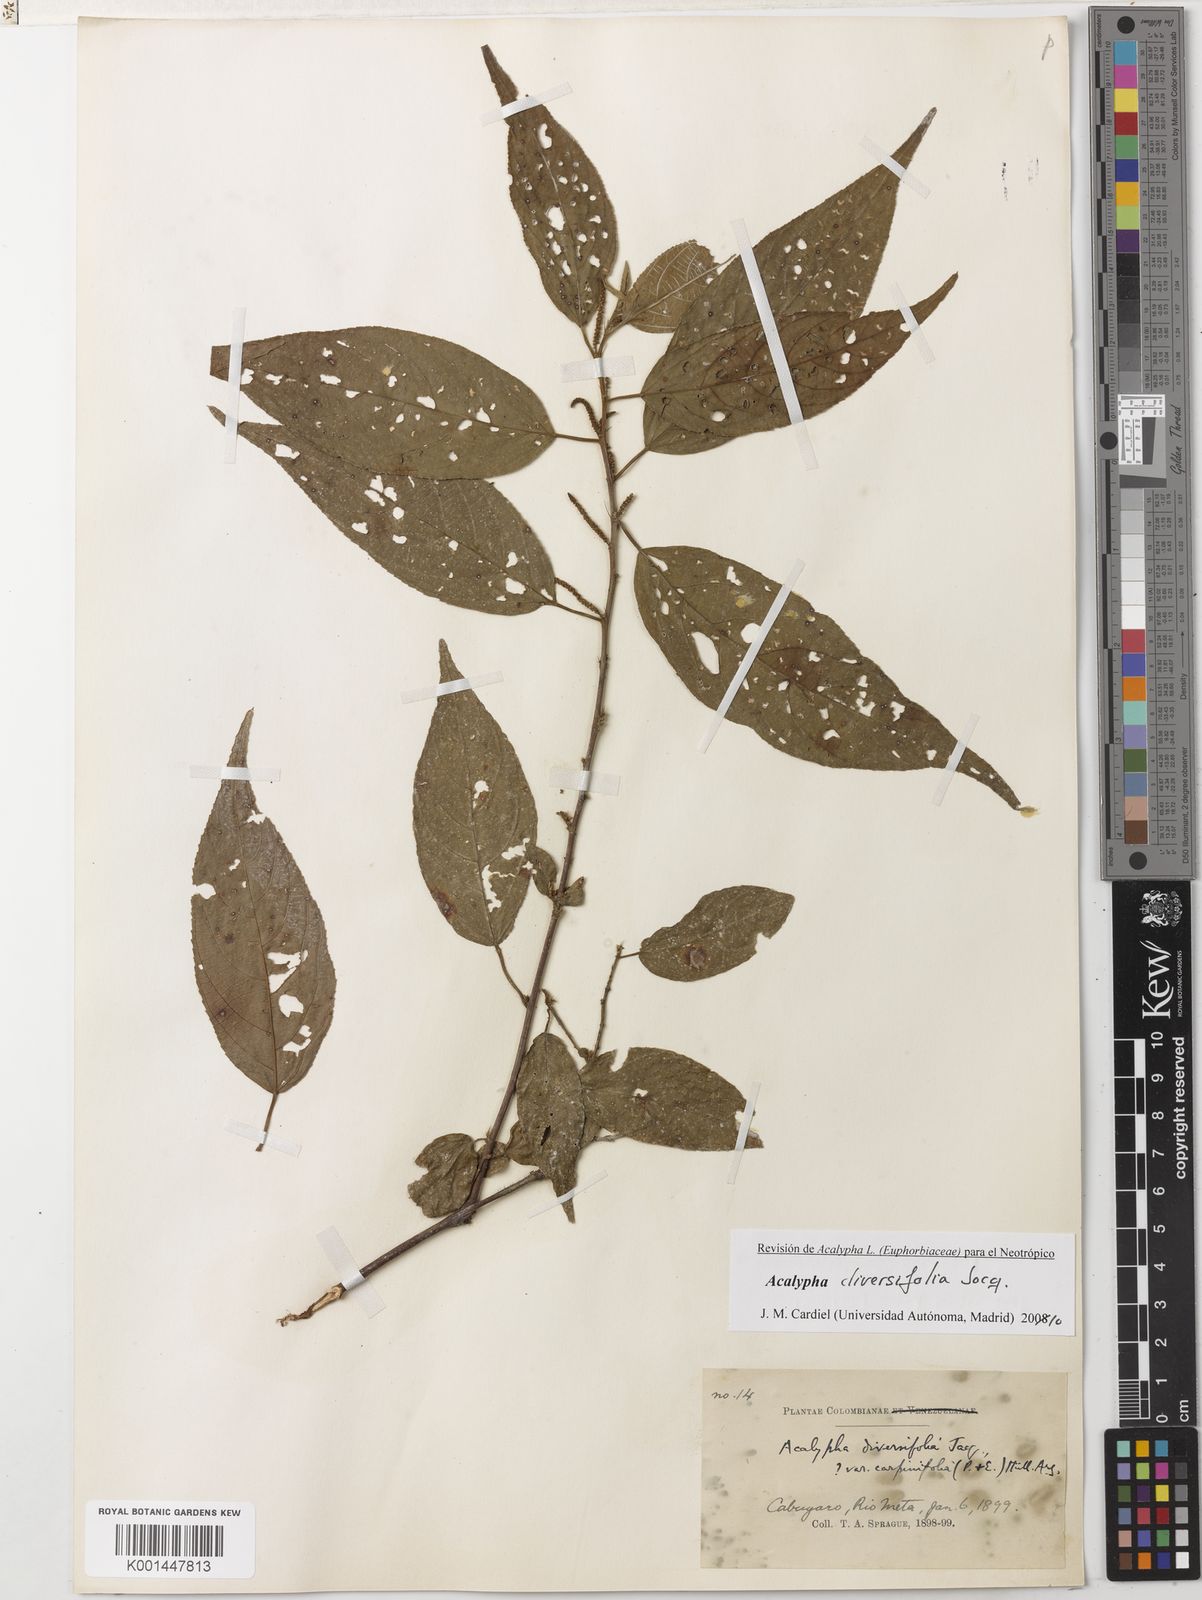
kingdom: Plantae
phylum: Tracheophyta
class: Magnoliopsida
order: Malpighiales
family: Euphorbiaceae
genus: Acalypha
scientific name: Acalypha diversifolia
